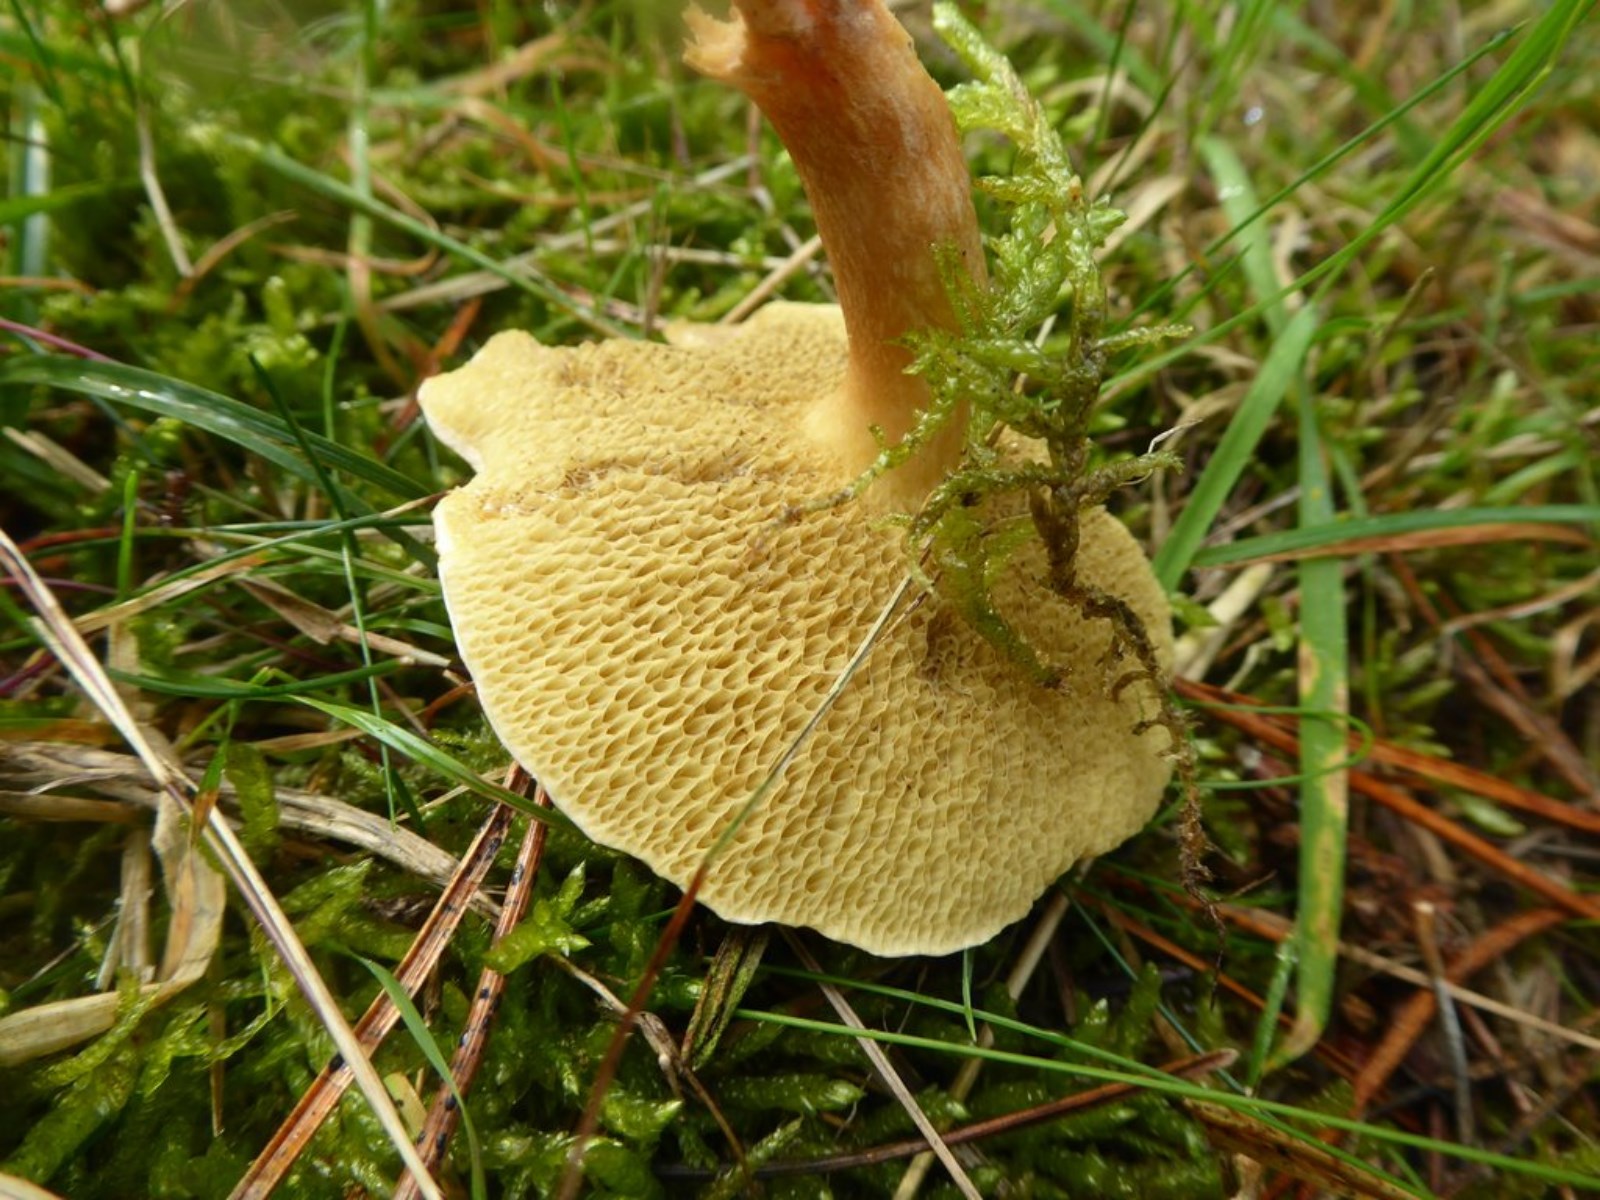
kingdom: Fungi
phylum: Basidiomycota
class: Agaricomycetes
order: Boletales
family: Suillaceae
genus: Suillus
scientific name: Suillus bovinus
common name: grovporet slimrørhat
